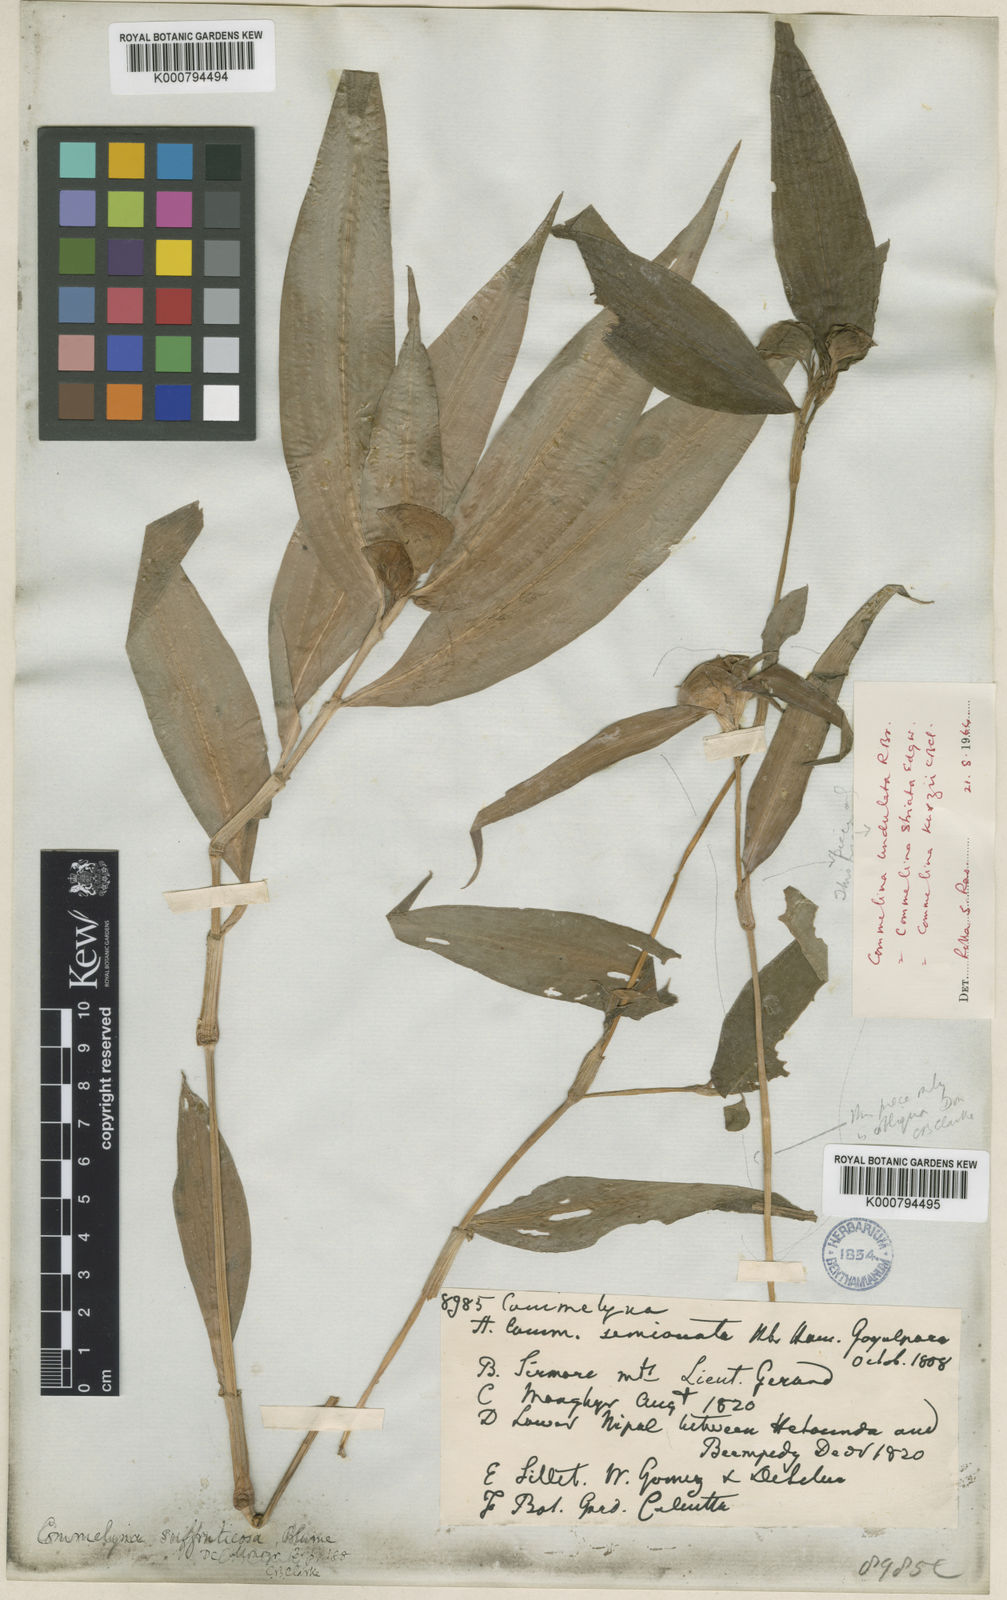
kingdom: Plantae
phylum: Tracheophyta
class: Liliopsida
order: Commelinales
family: Commelinaceae
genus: Commelina
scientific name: Commelina suffruticosa
